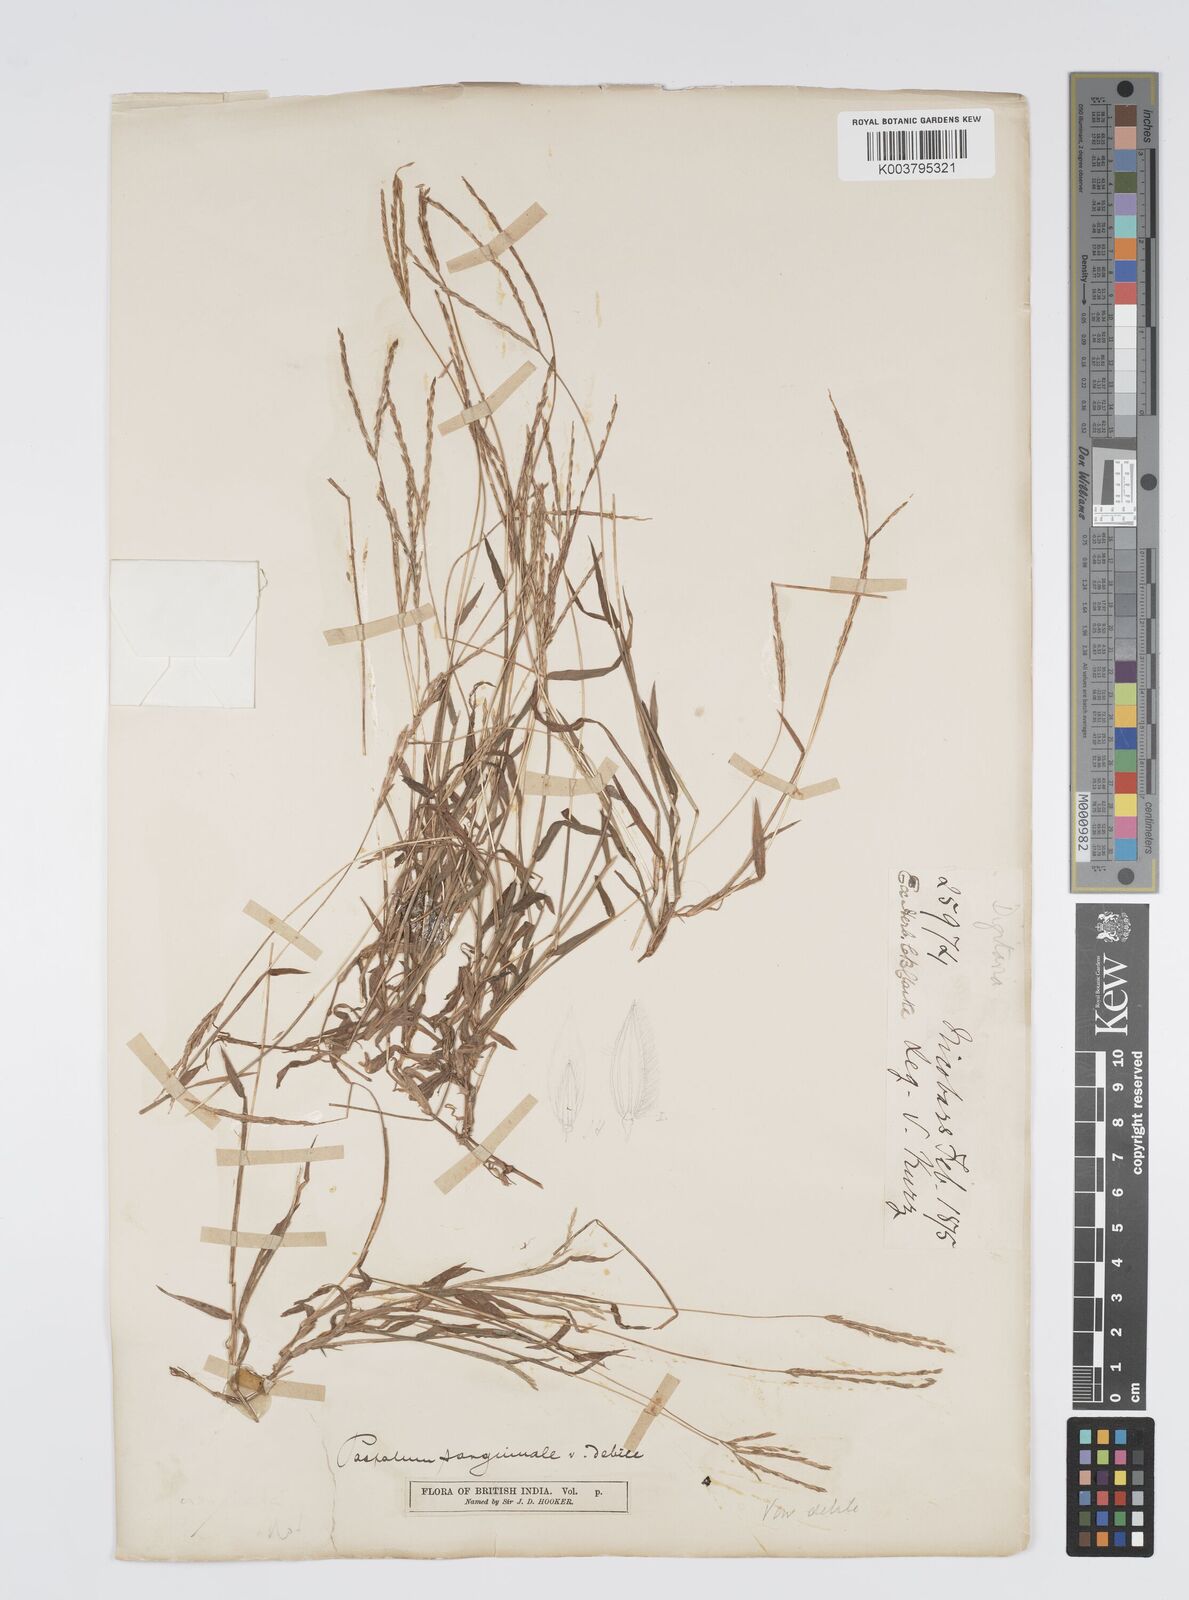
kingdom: Plantae
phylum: Tracheophyta
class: Liliopsida
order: Poales
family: Poaceae
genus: Digitaria
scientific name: Digitaria ciliaris
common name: Tropical finger-grass
